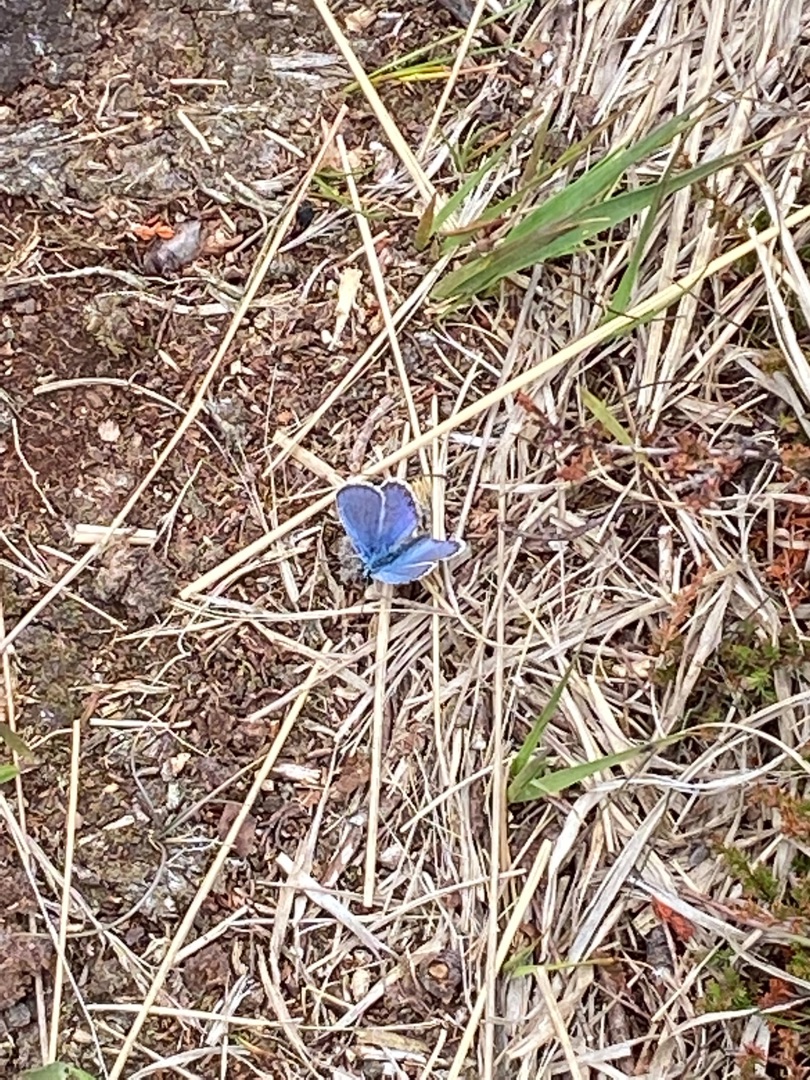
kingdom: Animalia
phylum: Arthropoda
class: Insecta
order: Lepidoptera
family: Lycaenidae
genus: Polyommatus
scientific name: Polyommatus icarus
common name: Almindelig blåfugl
